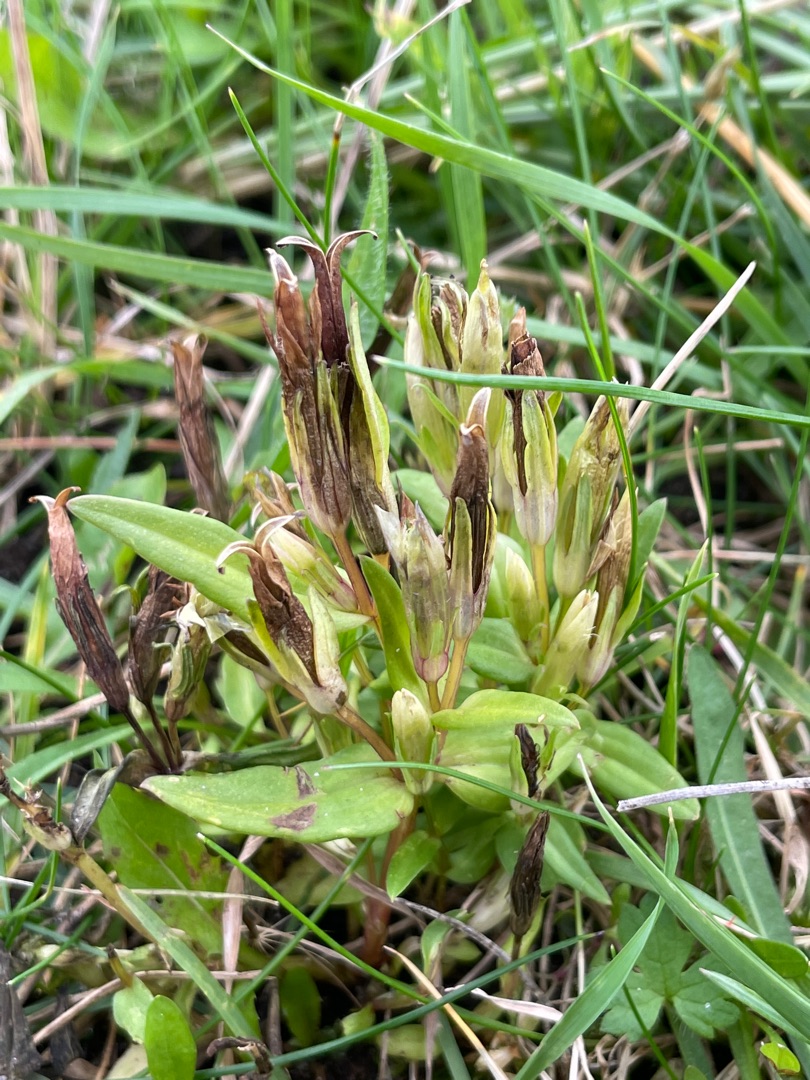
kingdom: Plantae
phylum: Tracheophyta
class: Magnoliopsida
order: Gentianales
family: Gentianaceae
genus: Gentianella
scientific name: Gentianella amarella
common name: Smalbægret ensian
